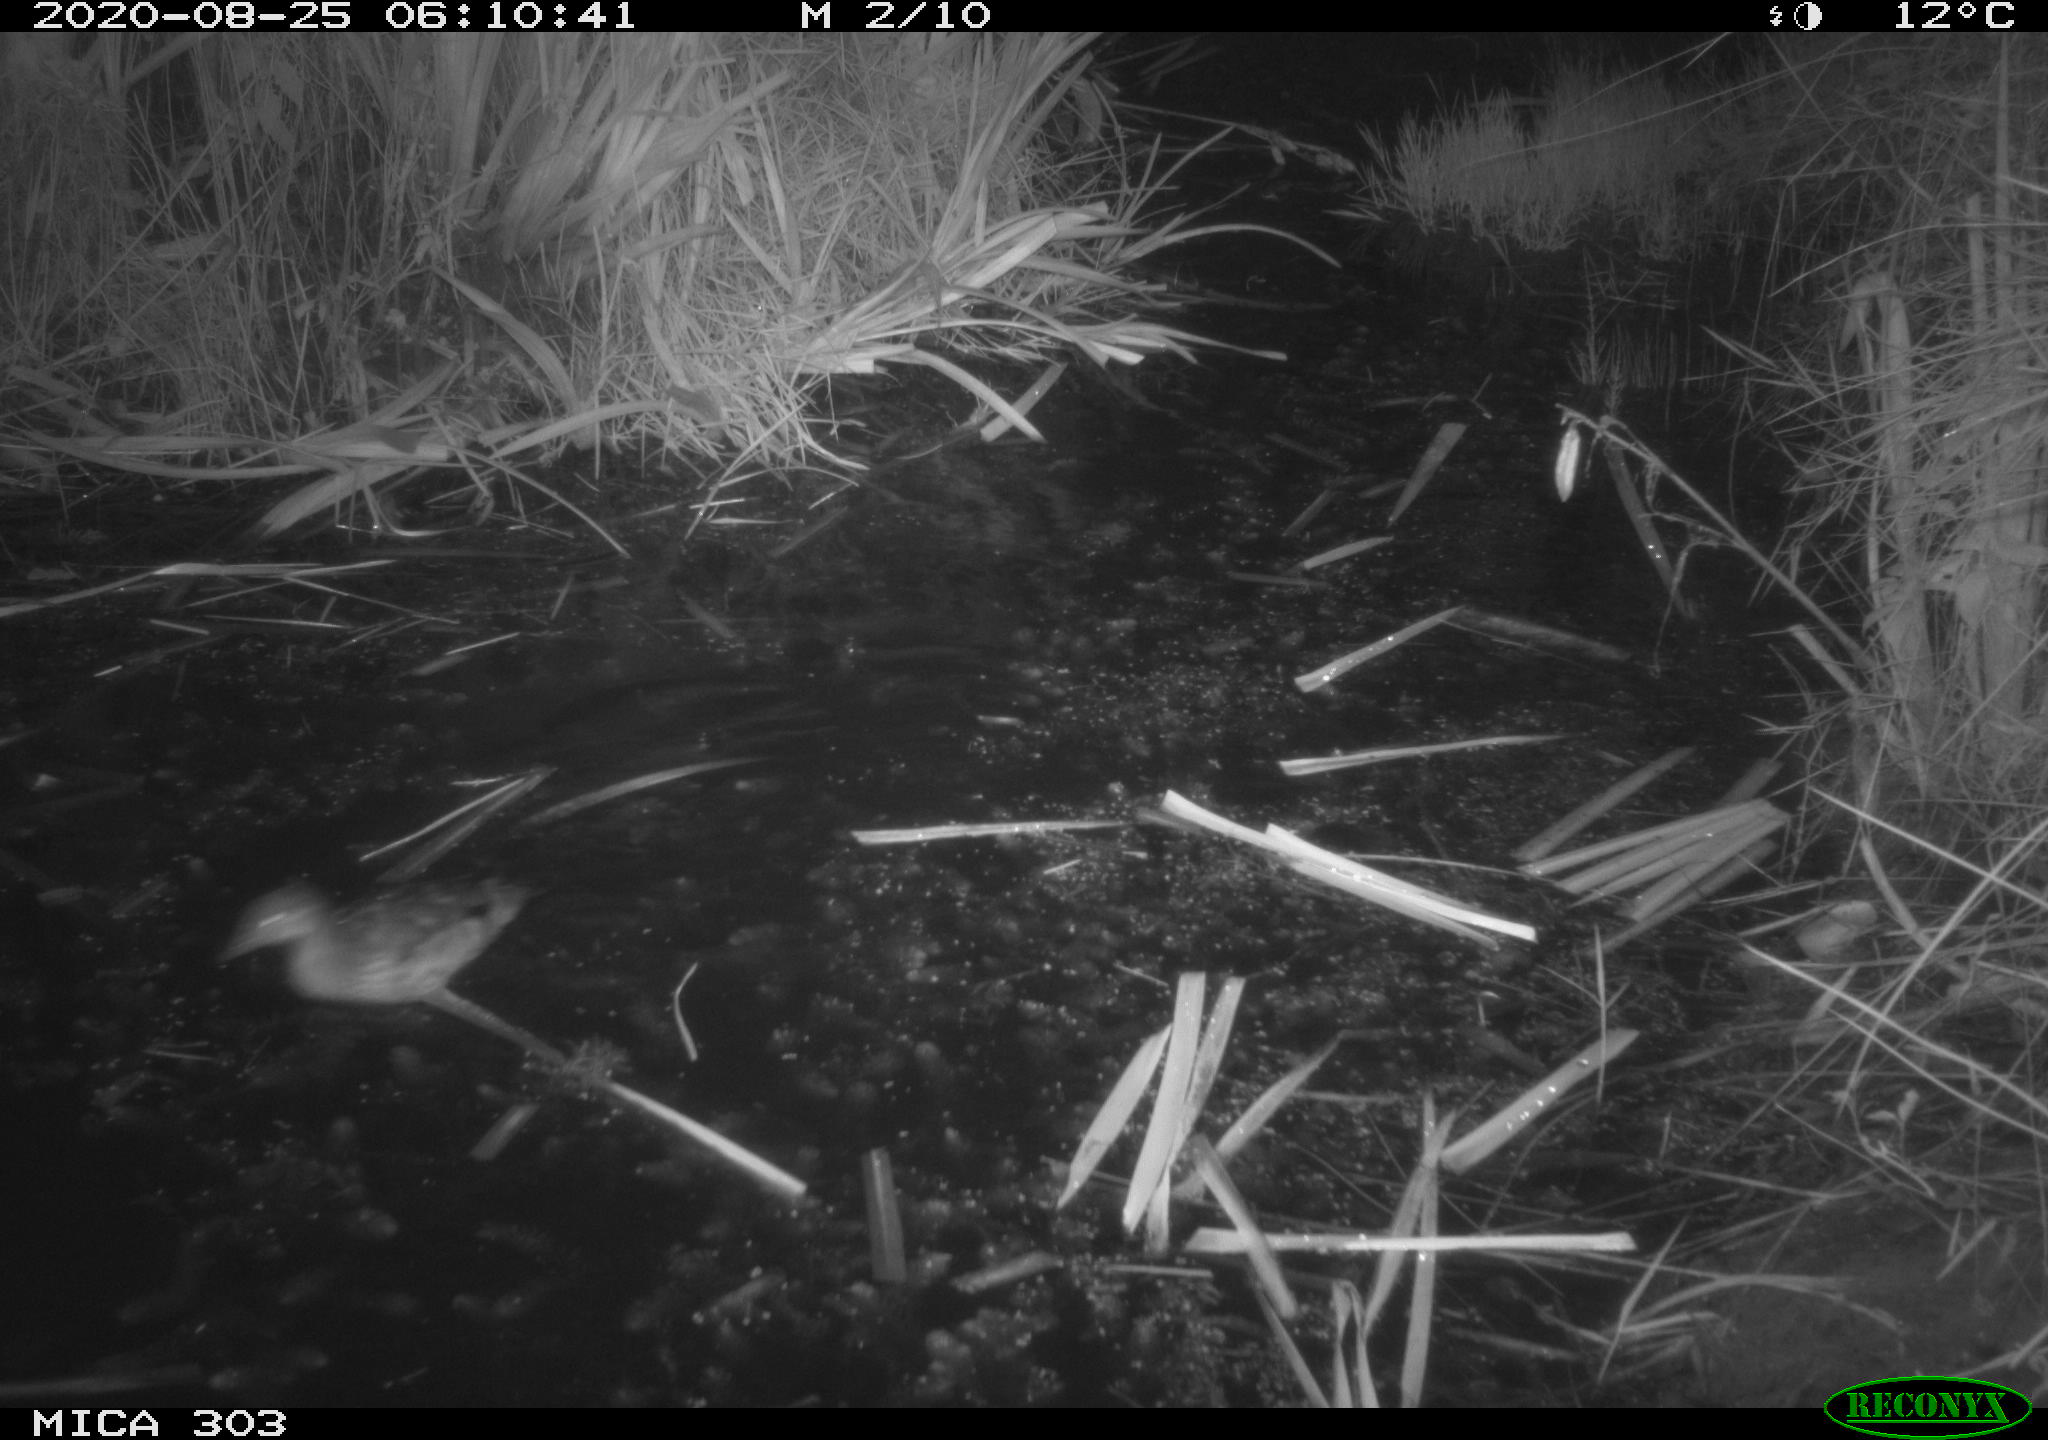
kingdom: Animalia
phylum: Chordata
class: Aves
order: Anseriformes
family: Anatidae
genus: Aix
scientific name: Aix galericulata
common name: Mandarin duck
